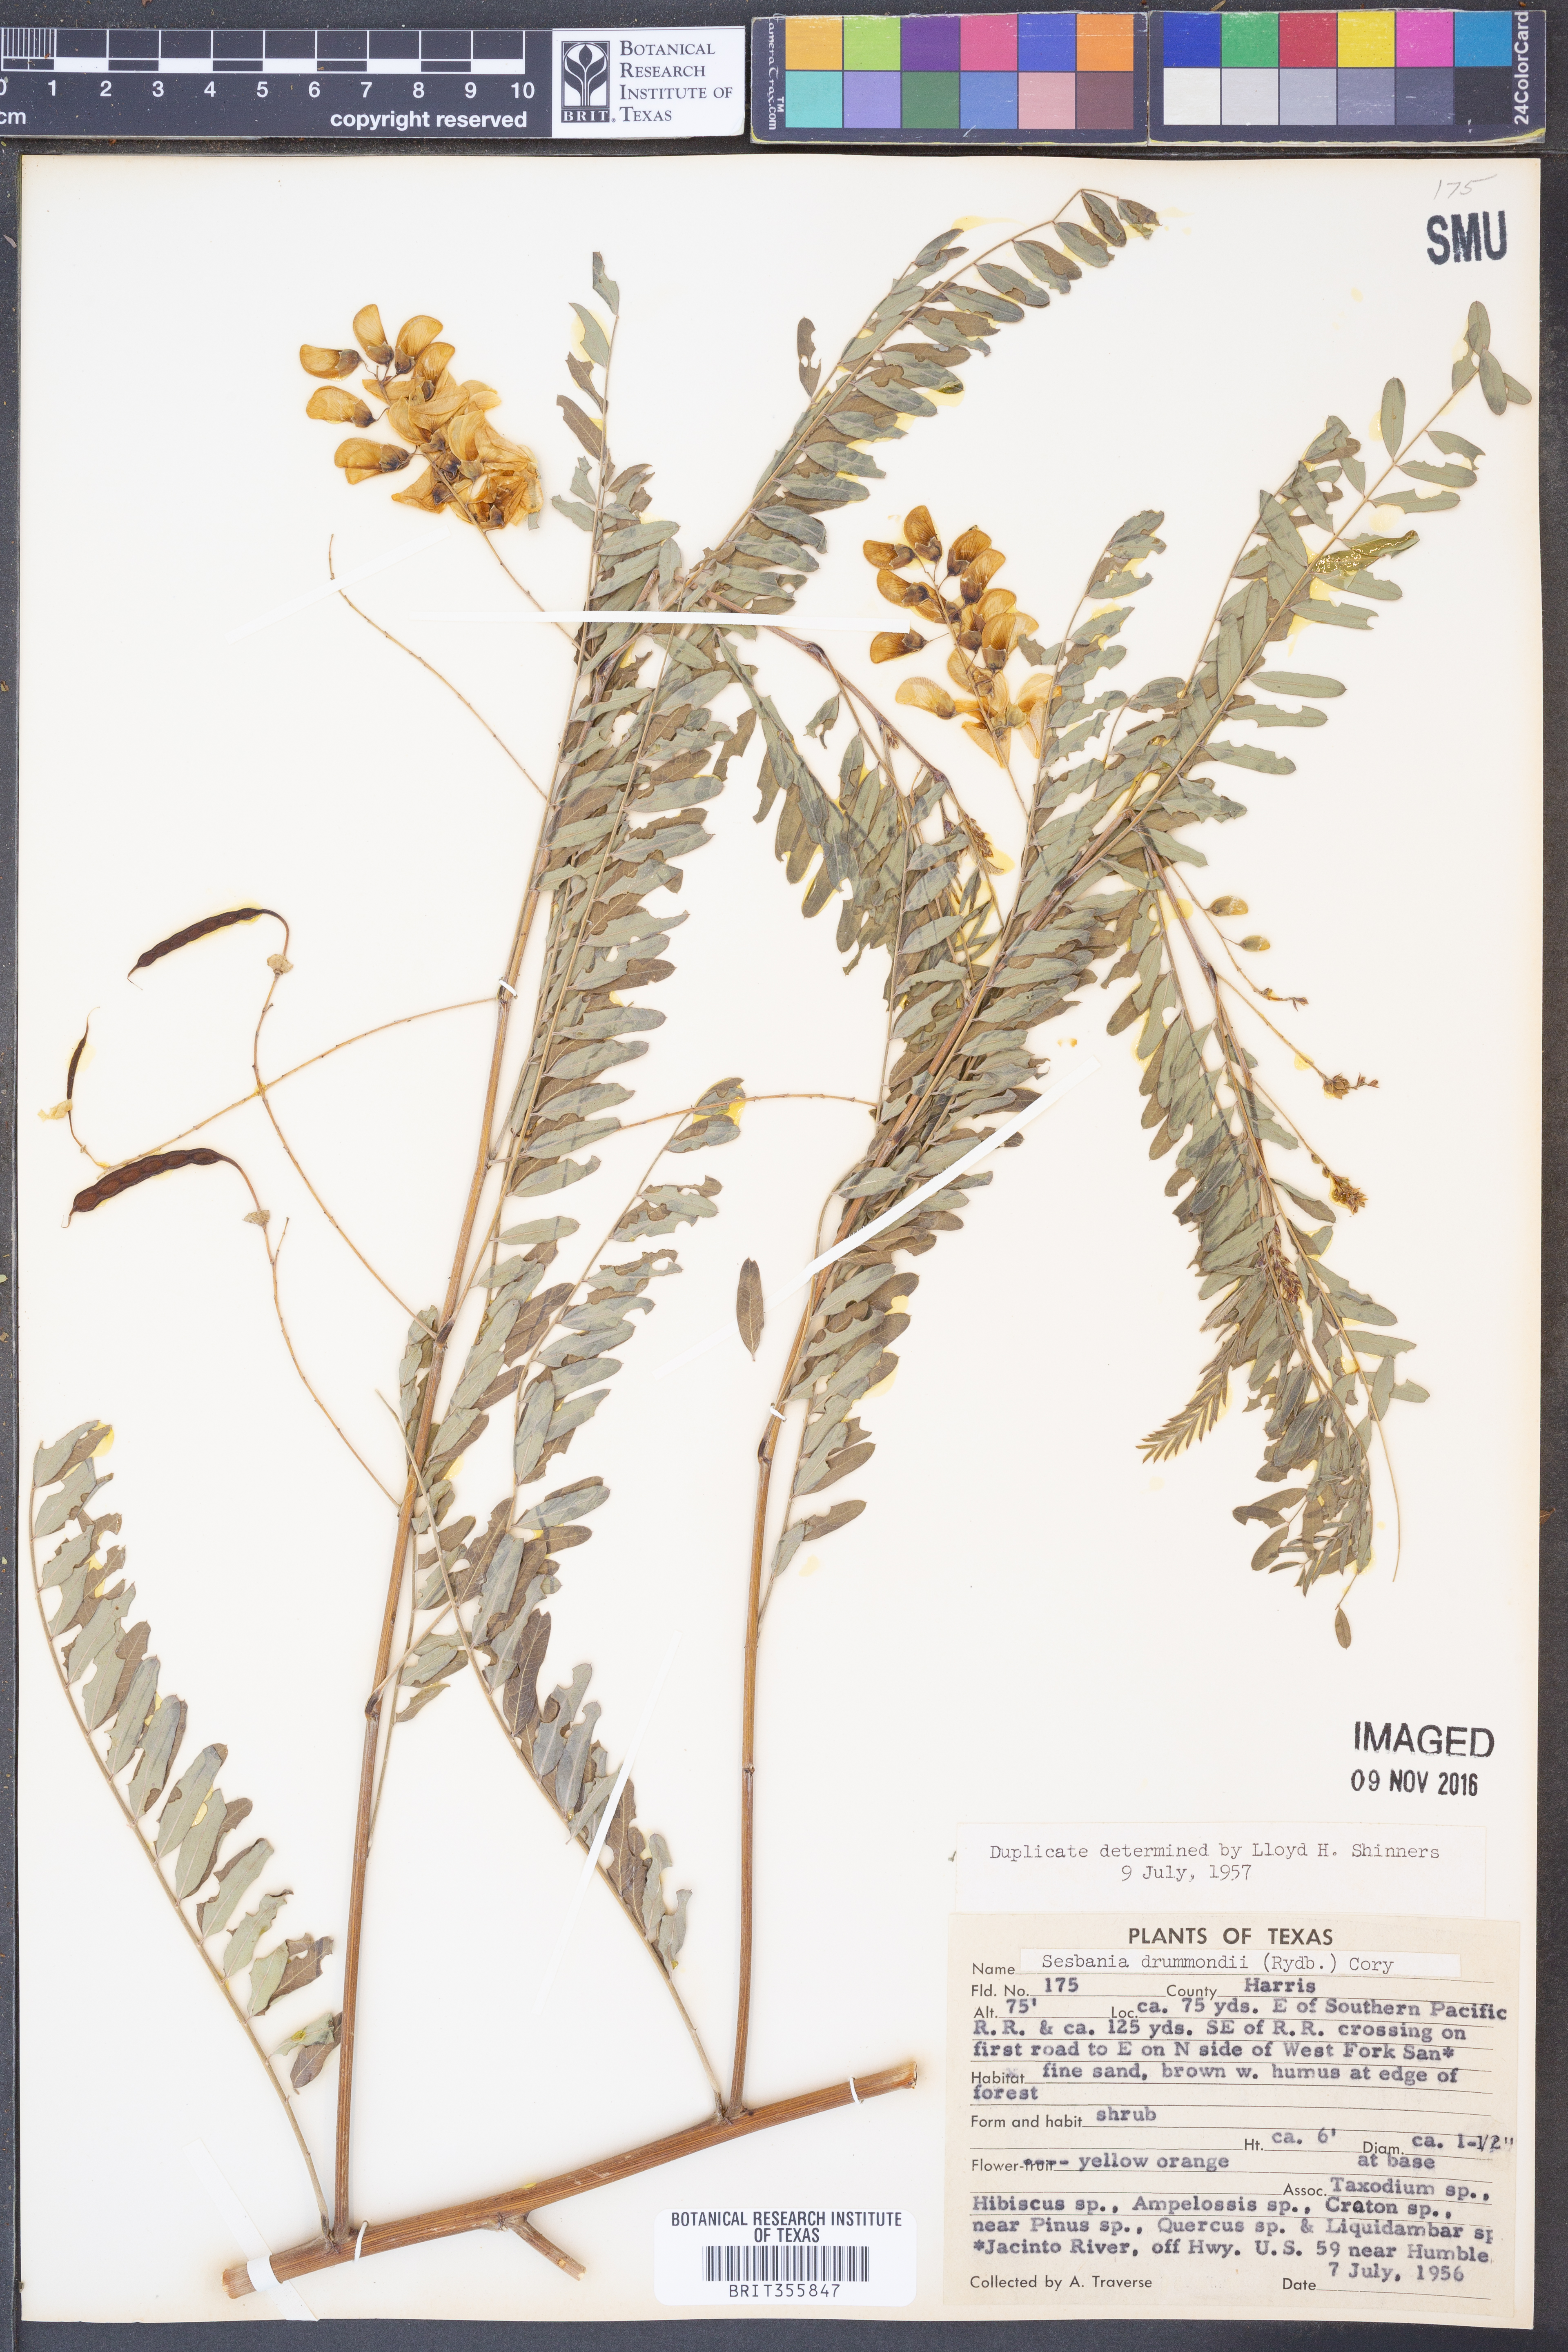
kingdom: Plantae
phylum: Tracheophyta
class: Magnoliopsida
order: Fabales
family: Fabaceae
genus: Sesbania
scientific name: Sesbania drummondii
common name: Poison-bean
